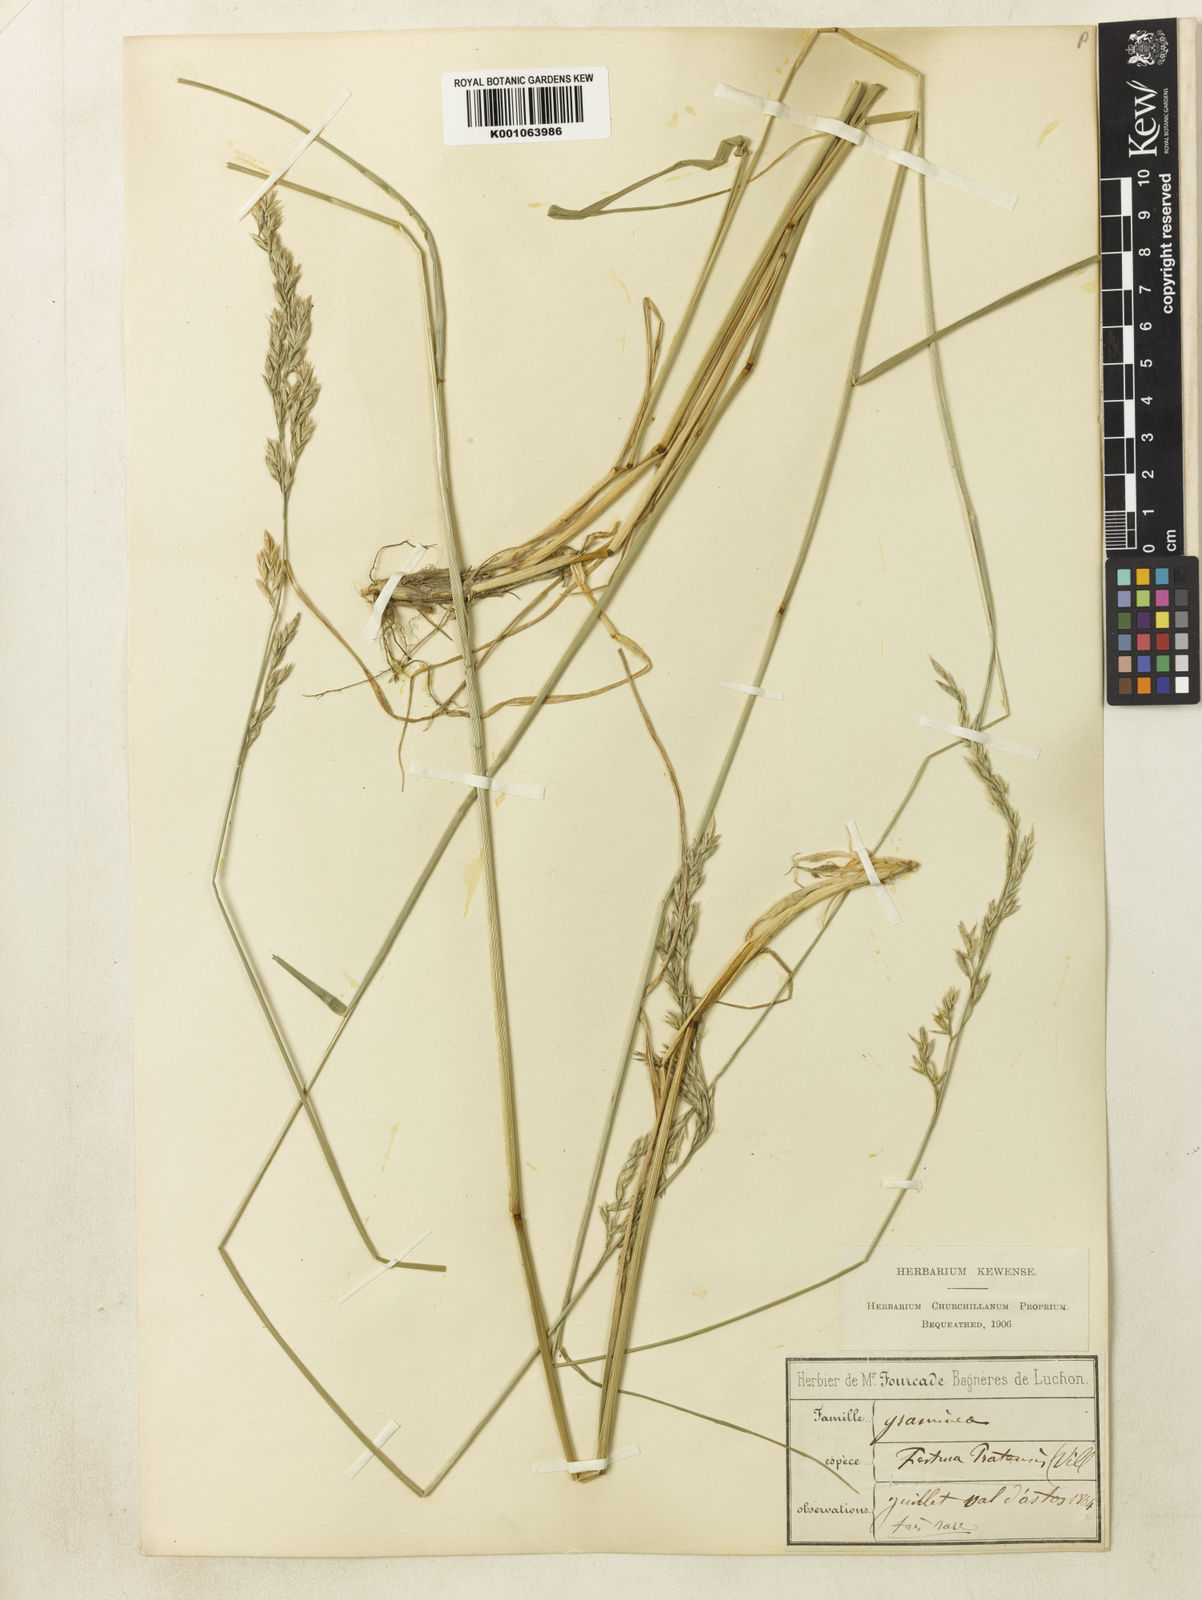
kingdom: Plantae
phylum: Tracheophyta
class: Liliopsida
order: Poales
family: Poaceae
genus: Lolium
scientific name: Lolium arundinaceum
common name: Reed fescue
